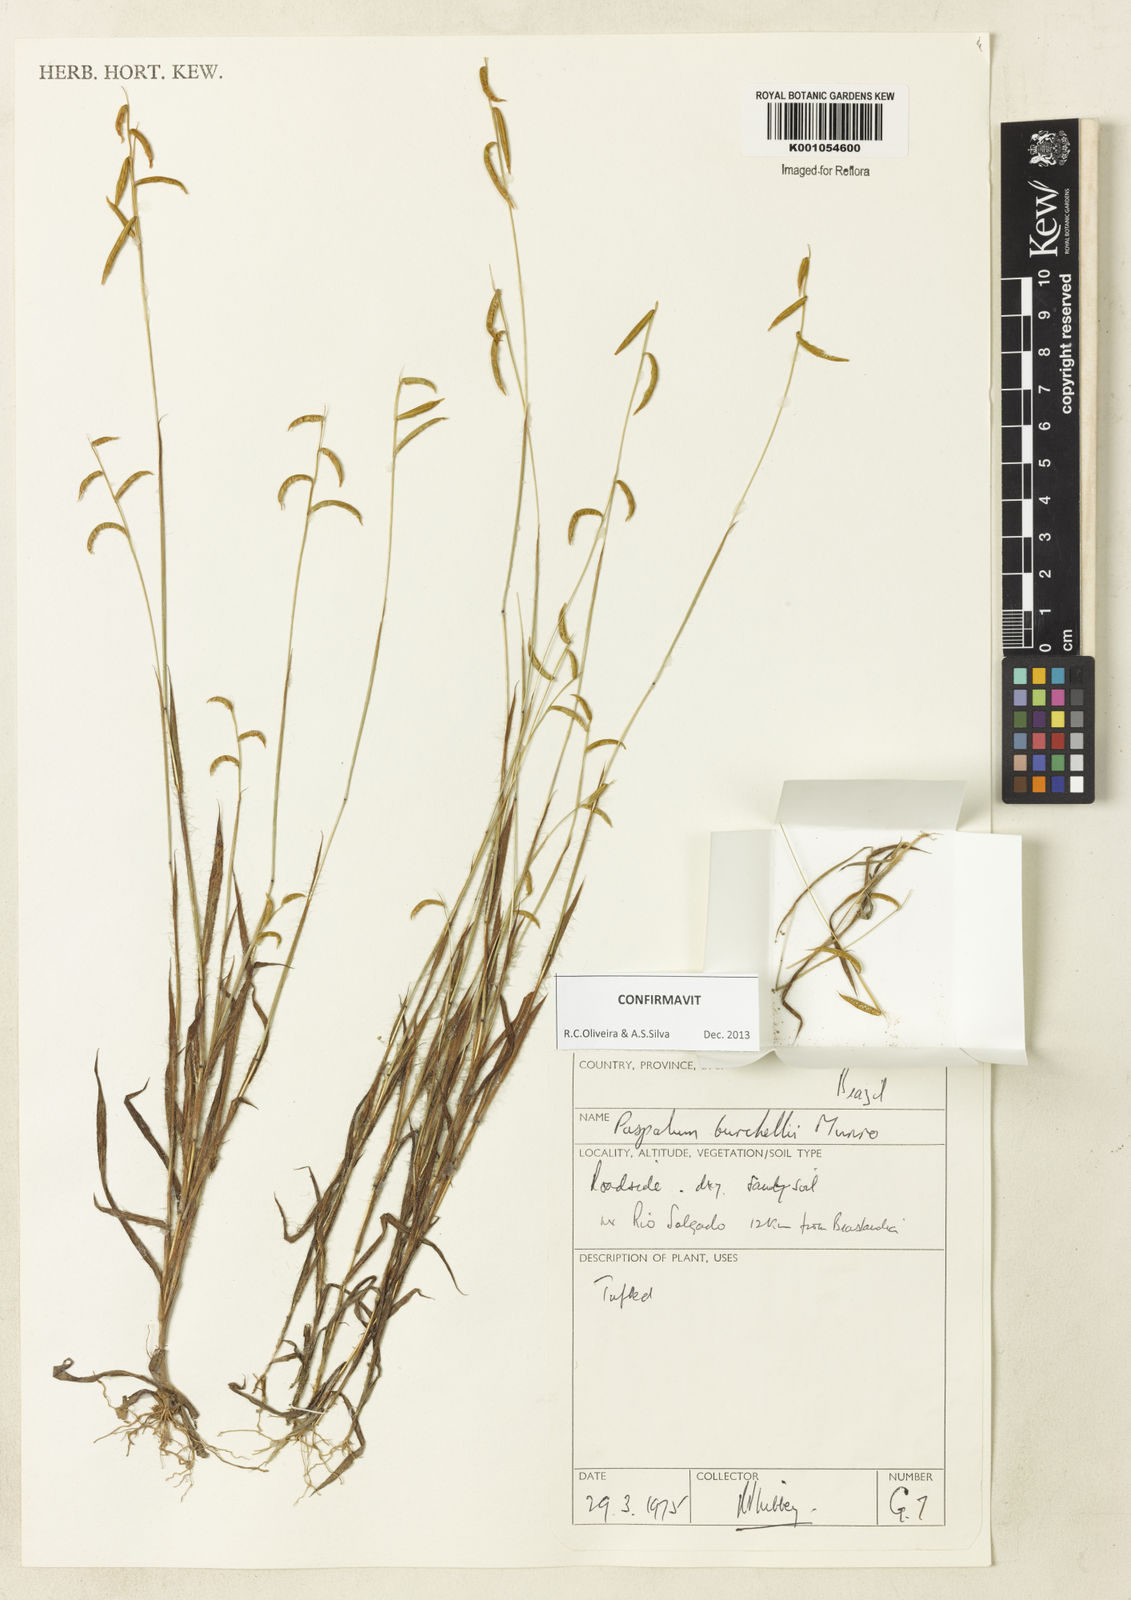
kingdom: Plantae
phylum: Tracheophyta
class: Liliopsida
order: Poales
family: Poaceae
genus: Paspalum
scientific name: Paspalum burchellii
